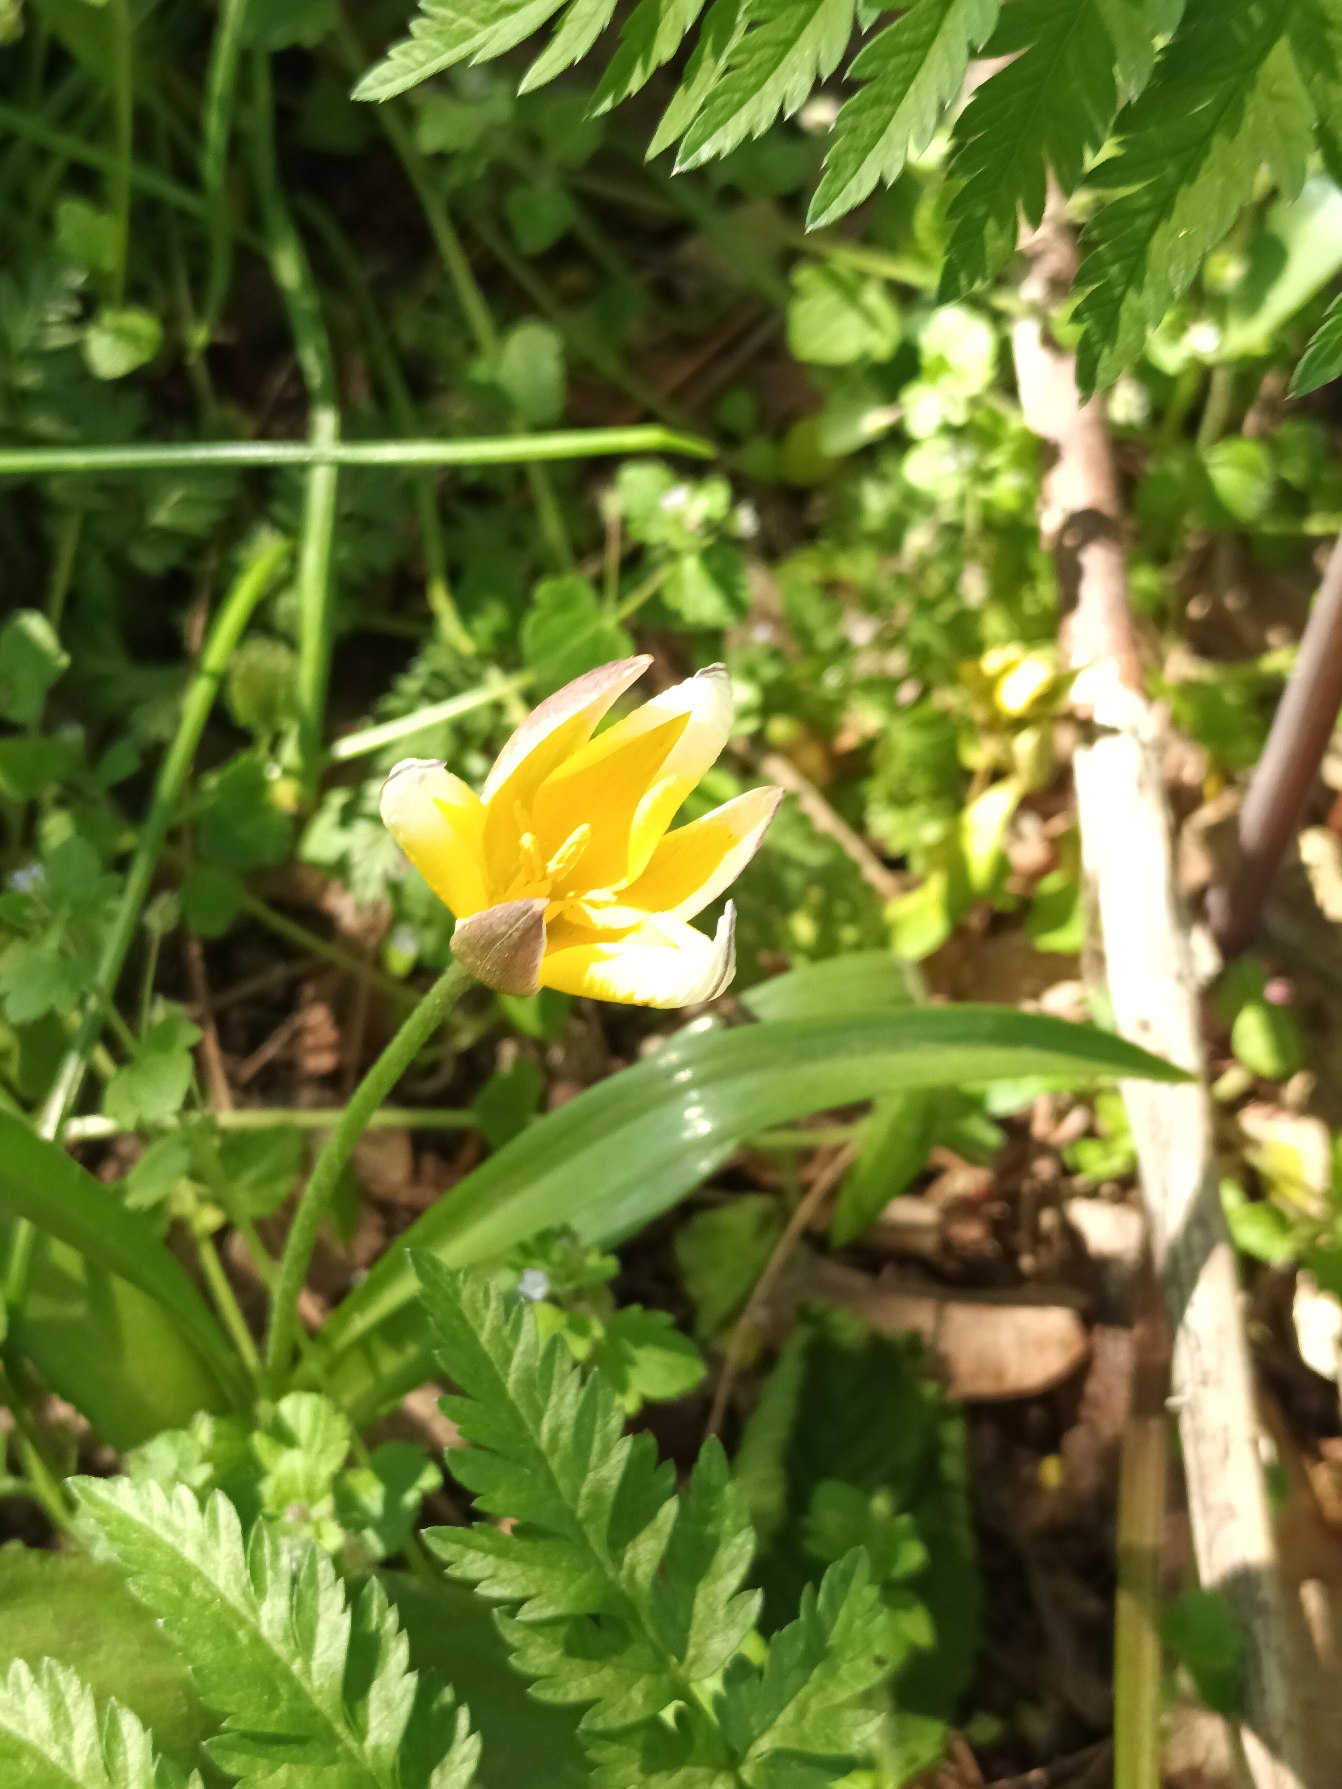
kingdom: Plantae
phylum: Tracheophyta
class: Liliopsida
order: Liliales
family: Liliaceae
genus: Tulipa
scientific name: Tulipa urumiensis
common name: Skærm-tulipan
